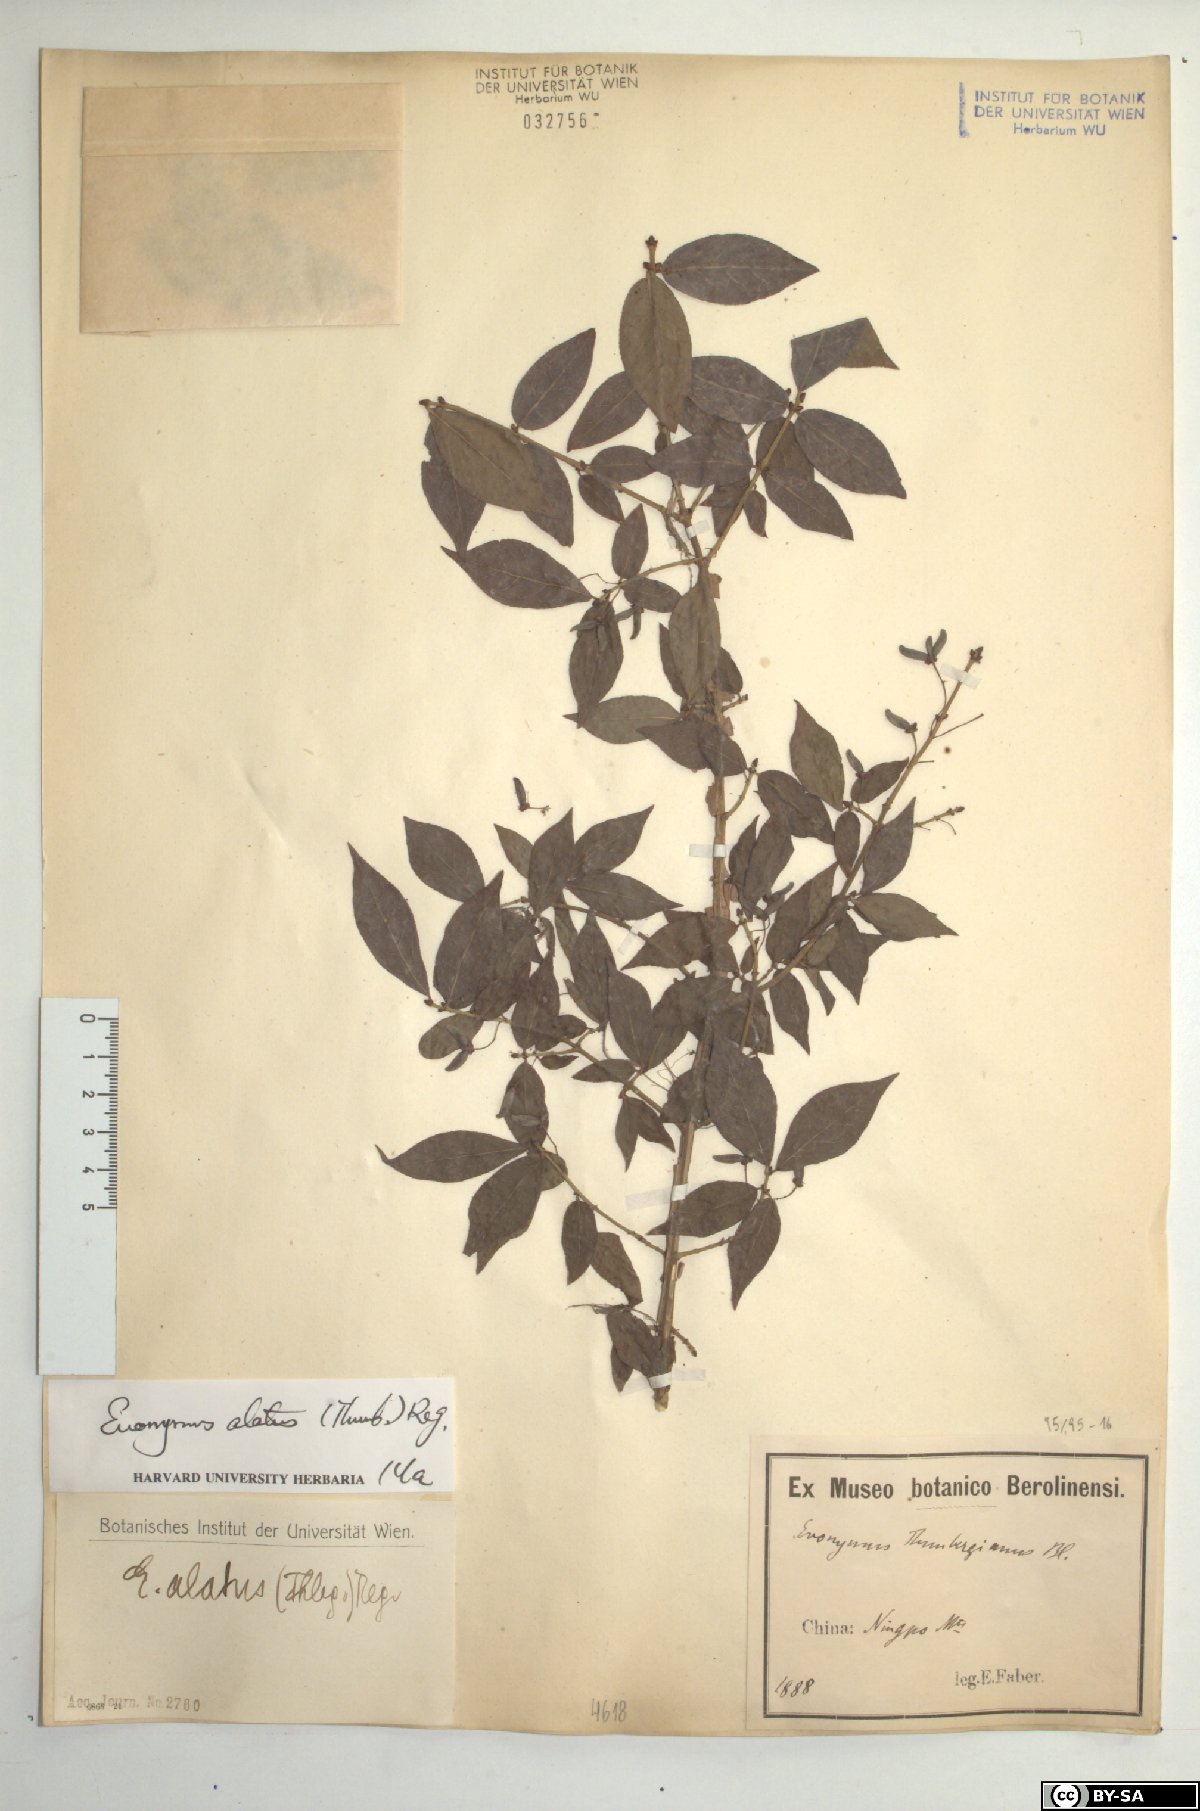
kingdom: Plantae
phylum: Tracheophyta
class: Magnoliopsida
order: Celastrales
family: Celastraceae
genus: Euonymus
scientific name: Euonymus alatus
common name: Winged euonymus
